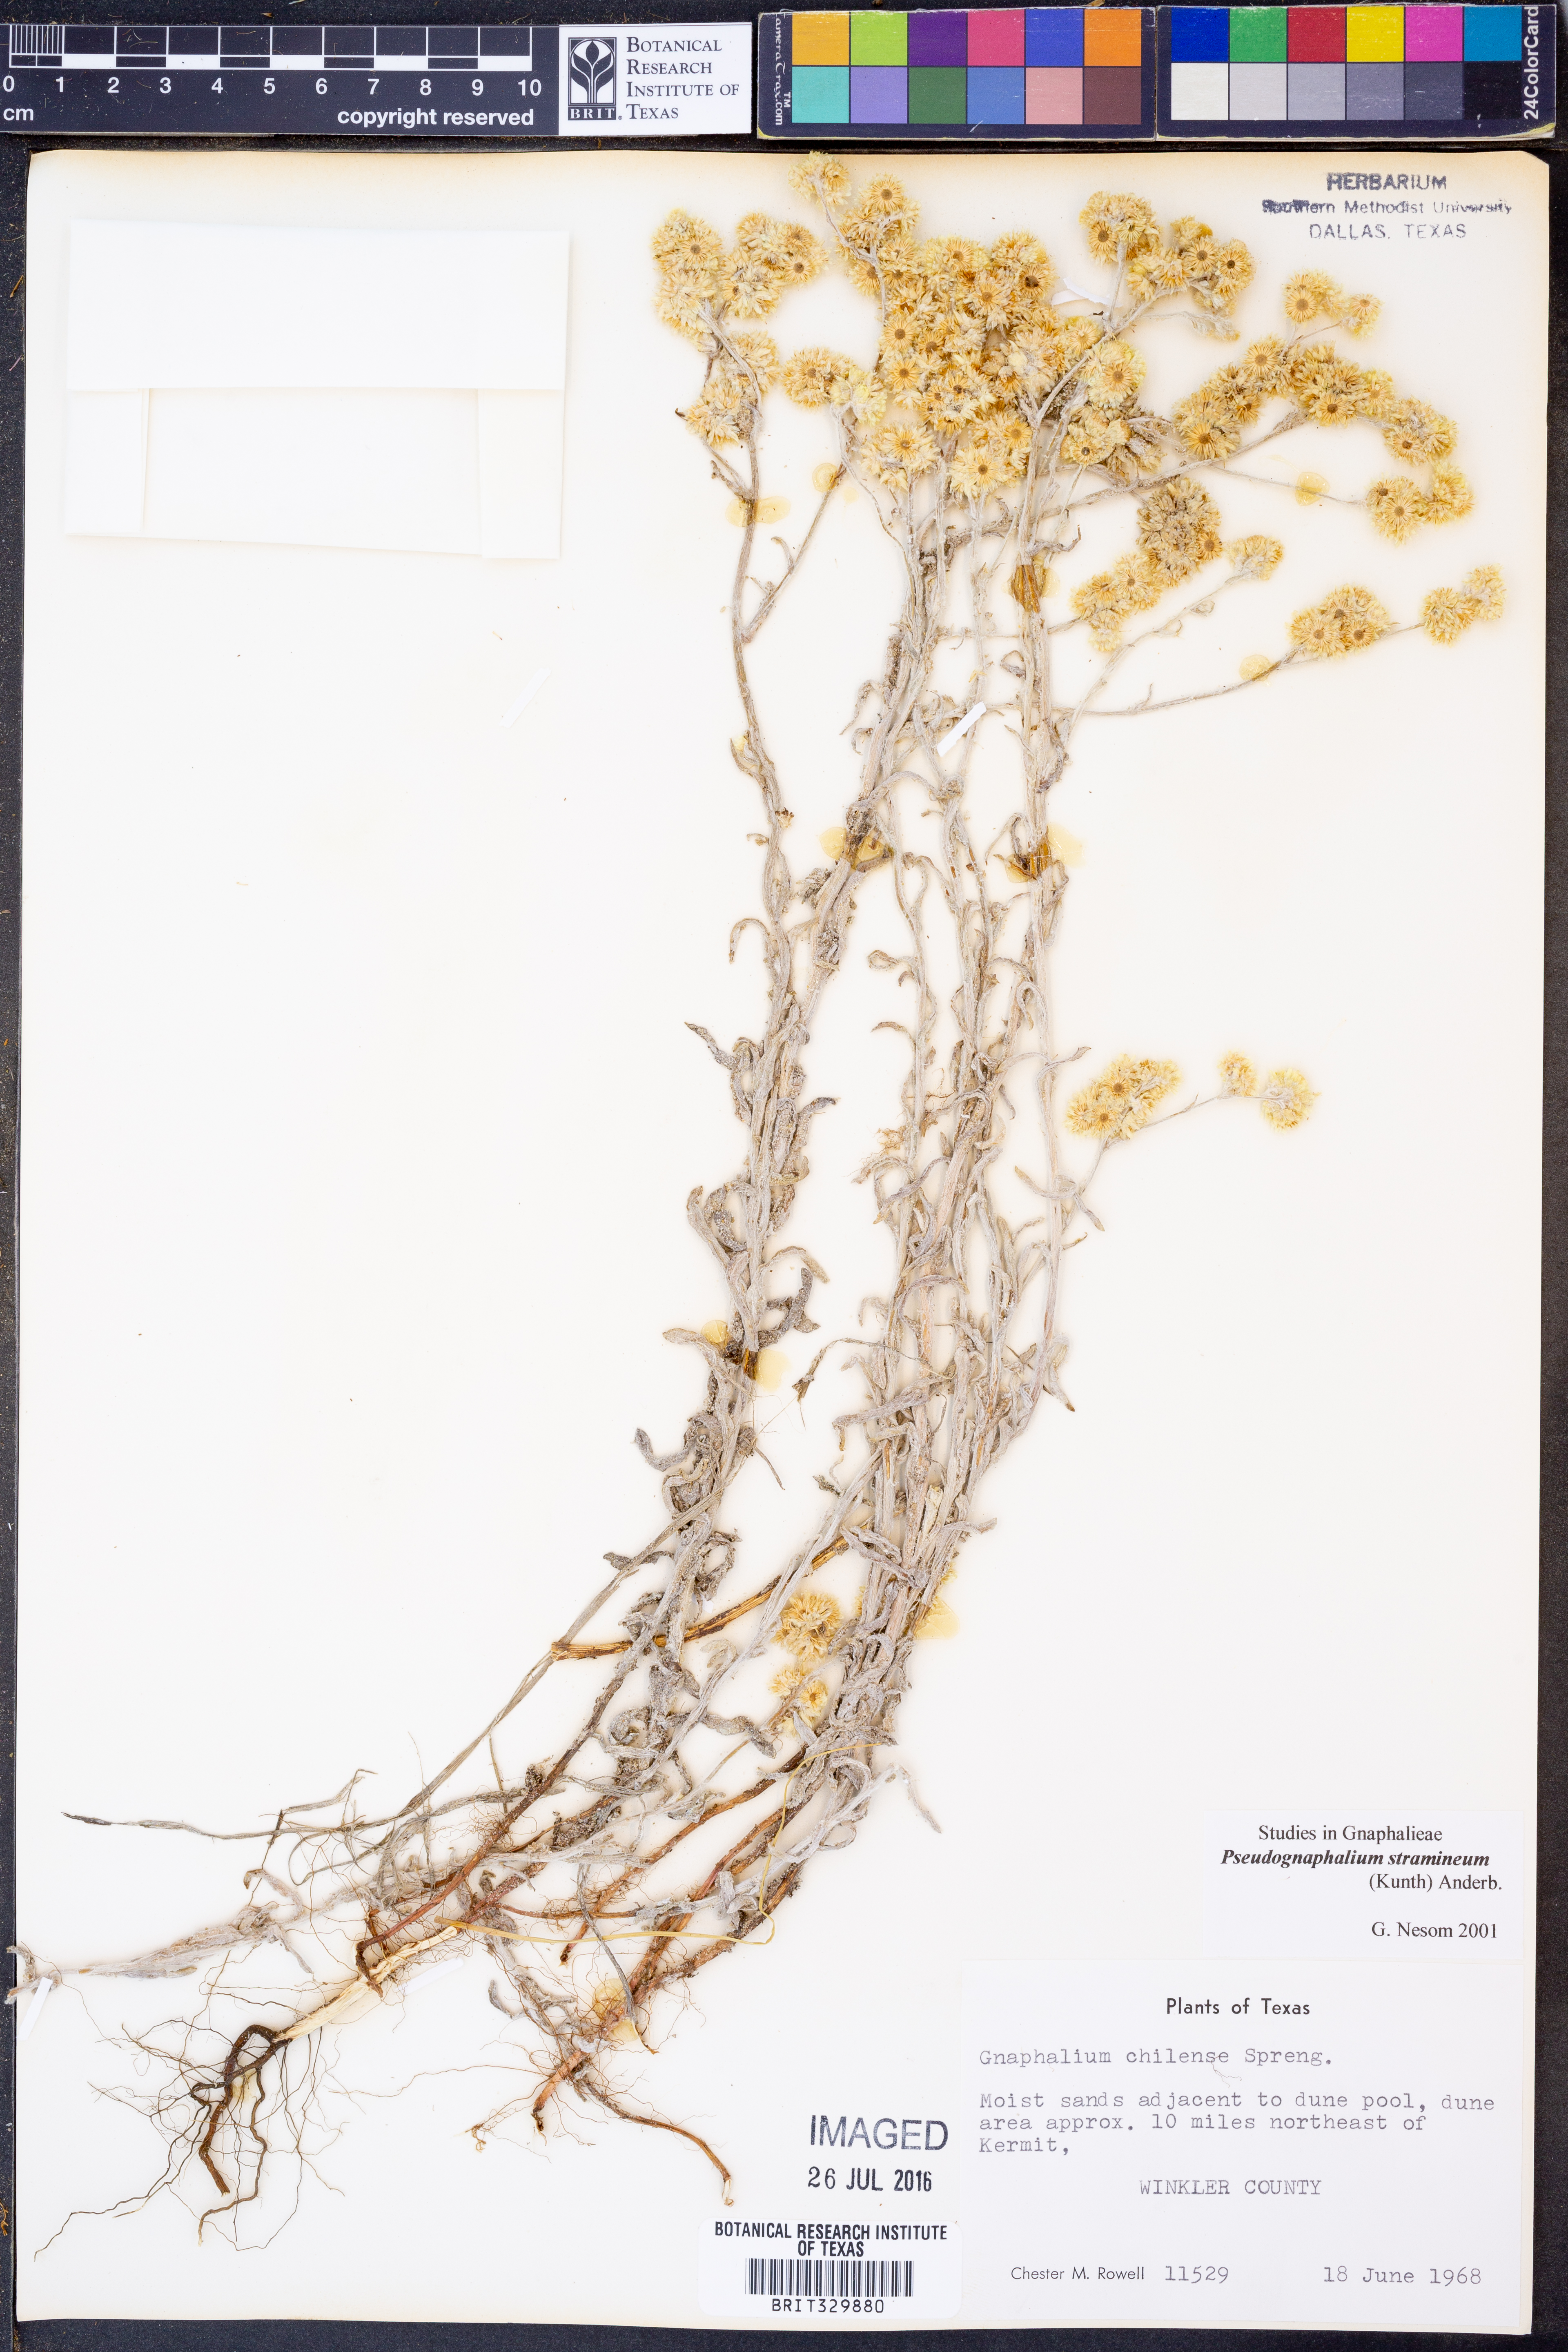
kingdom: Plantae
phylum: Tracheophyta
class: Magnoliopsida
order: Asterales
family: Asteraceae
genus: Pseudognaphalium
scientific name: Pseudognaphalium stramineum
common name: Cotton-batting-plant
